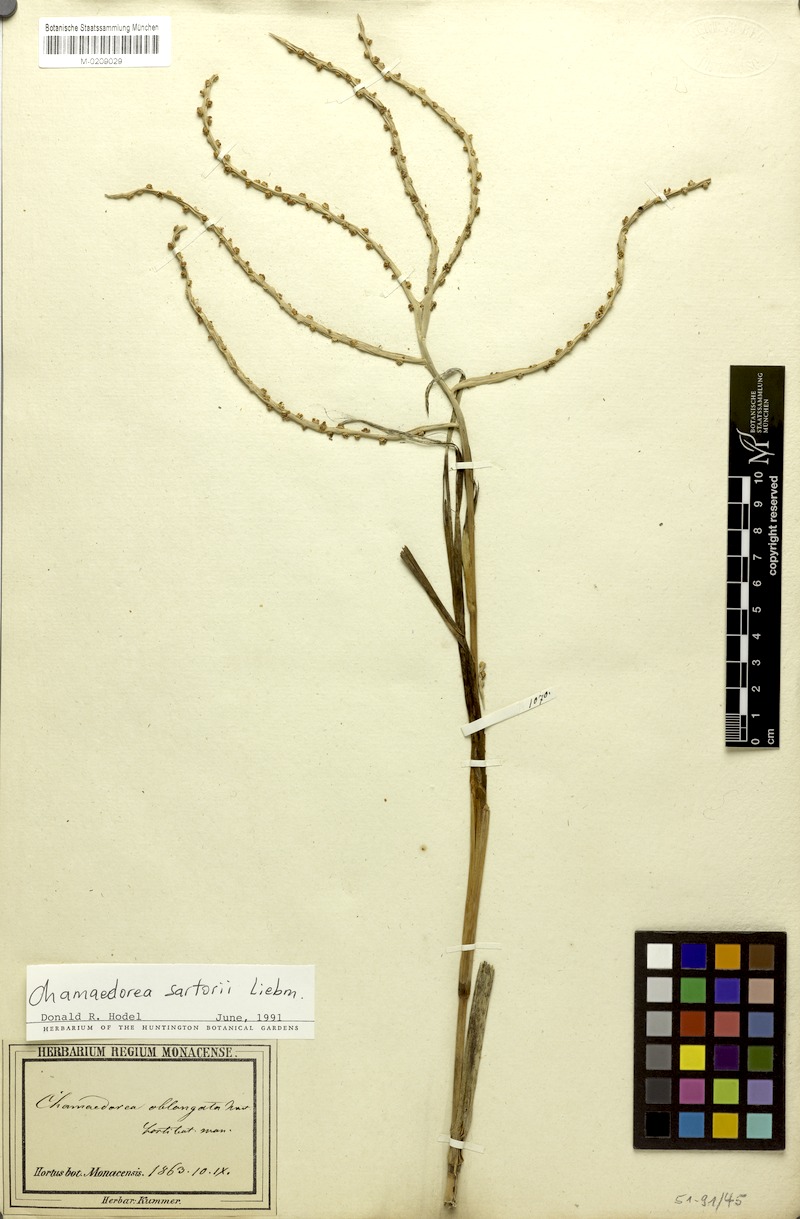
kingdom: Plantae
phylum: Tracheophyta
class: Liliopsida
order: Arecales
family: Arecaceae
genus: Chamaedorea
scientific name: Chamaedorea sartorii
